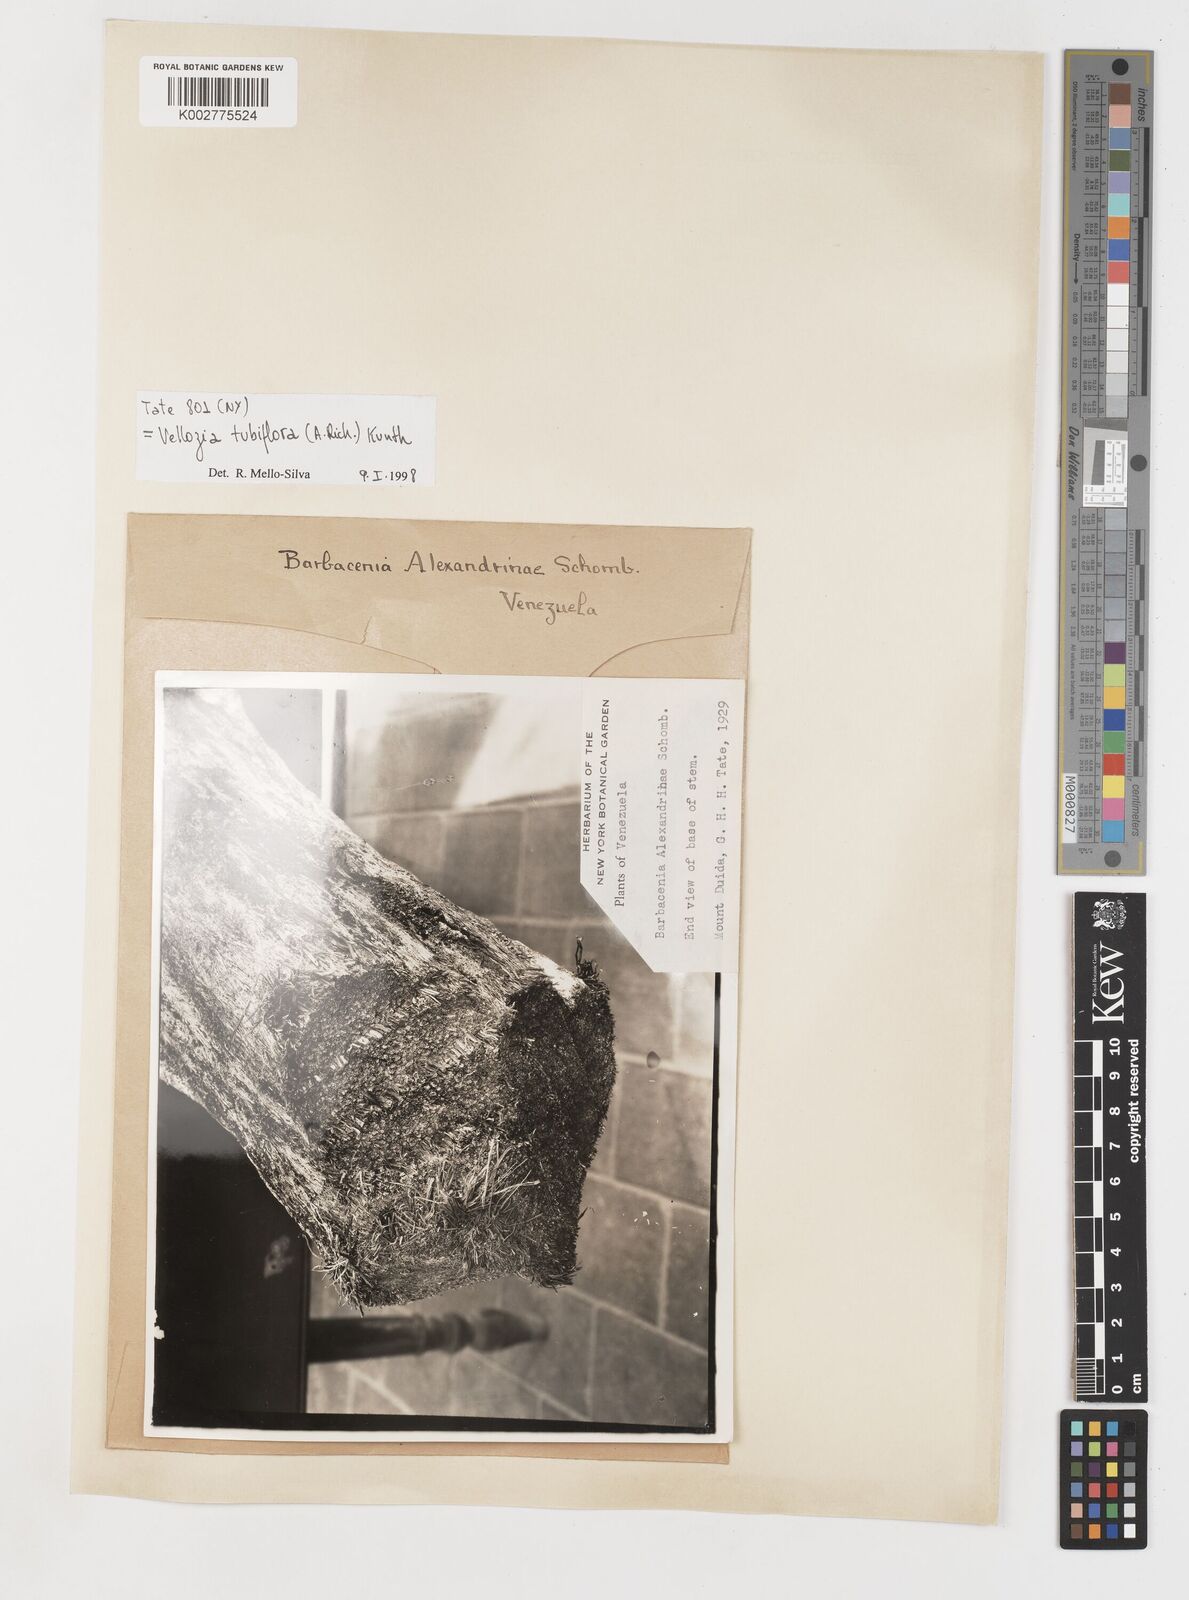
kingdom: Plantae
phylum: Tracheophyta
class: Liliopsida
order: Pandanales
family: Velloziaceae
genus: Vellozia
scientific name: Vellozia tubiflora
